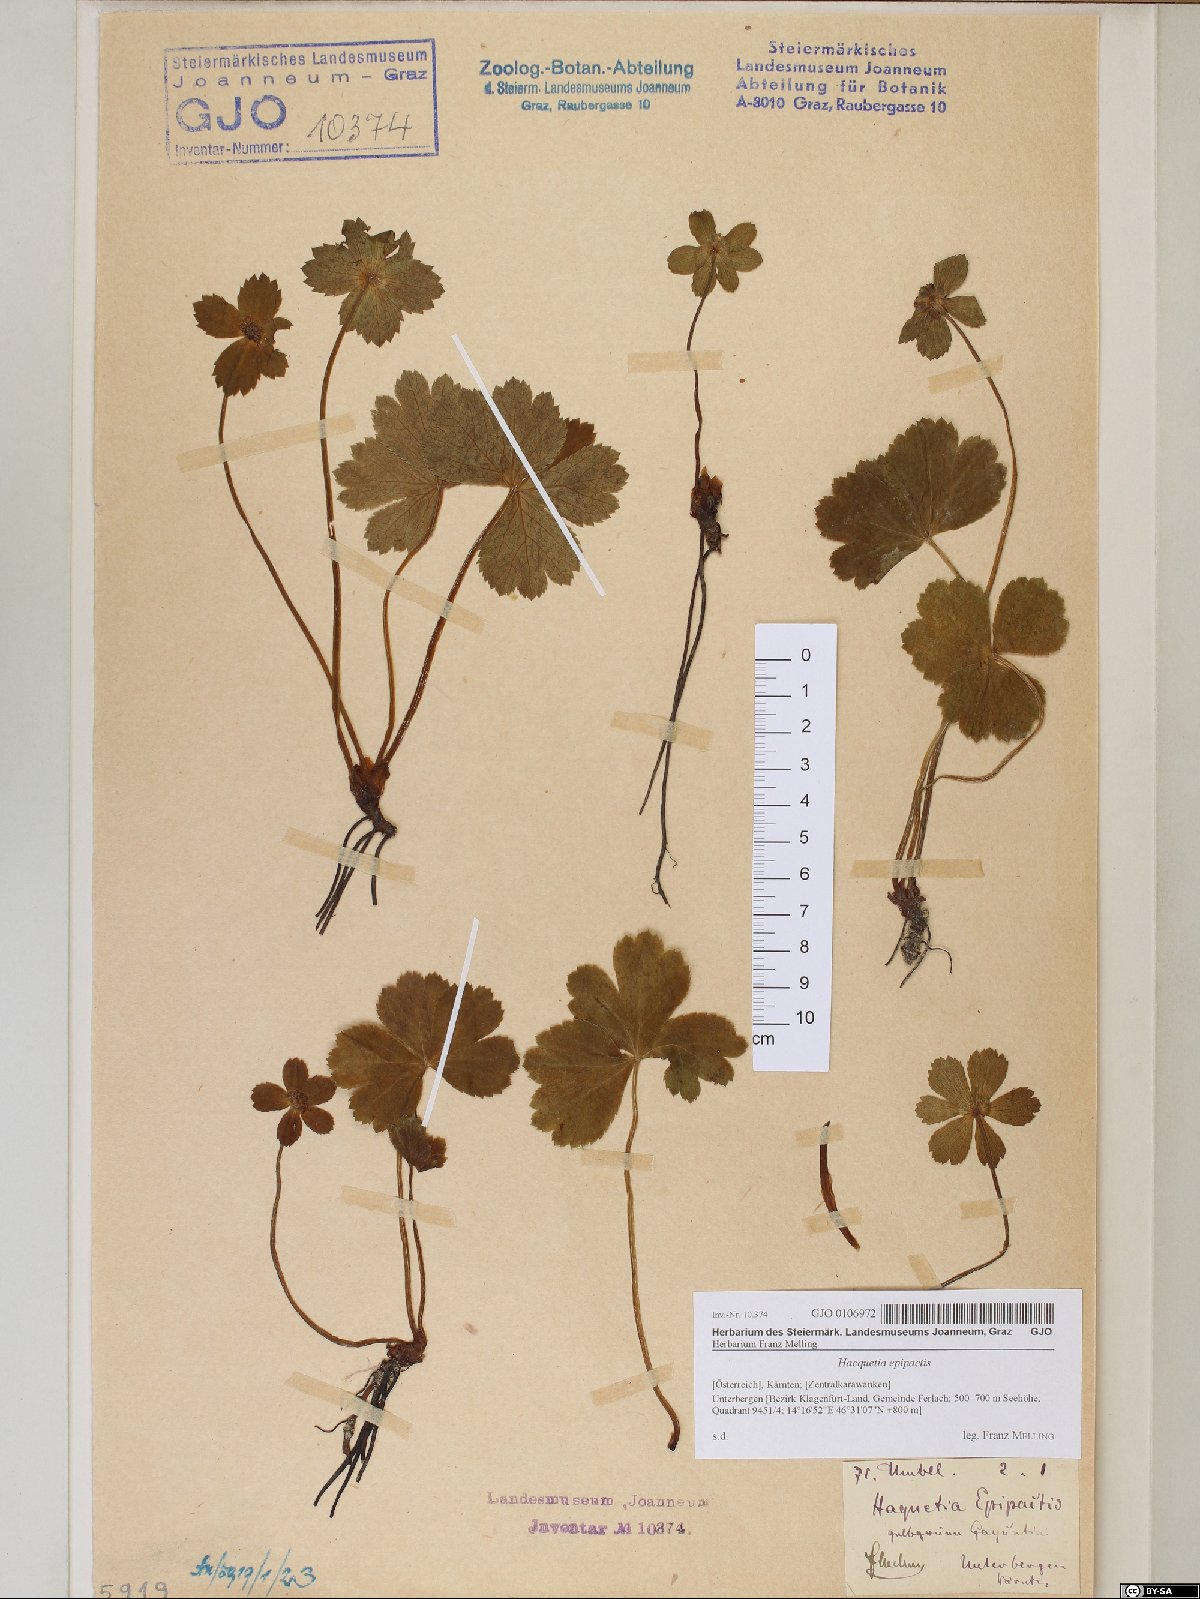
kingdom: Plantae
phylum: Tracheophyta
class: Magnoliopsida
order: Apiales
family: Apiaceae
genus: Sanicula
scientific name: Sanicula epipactis
